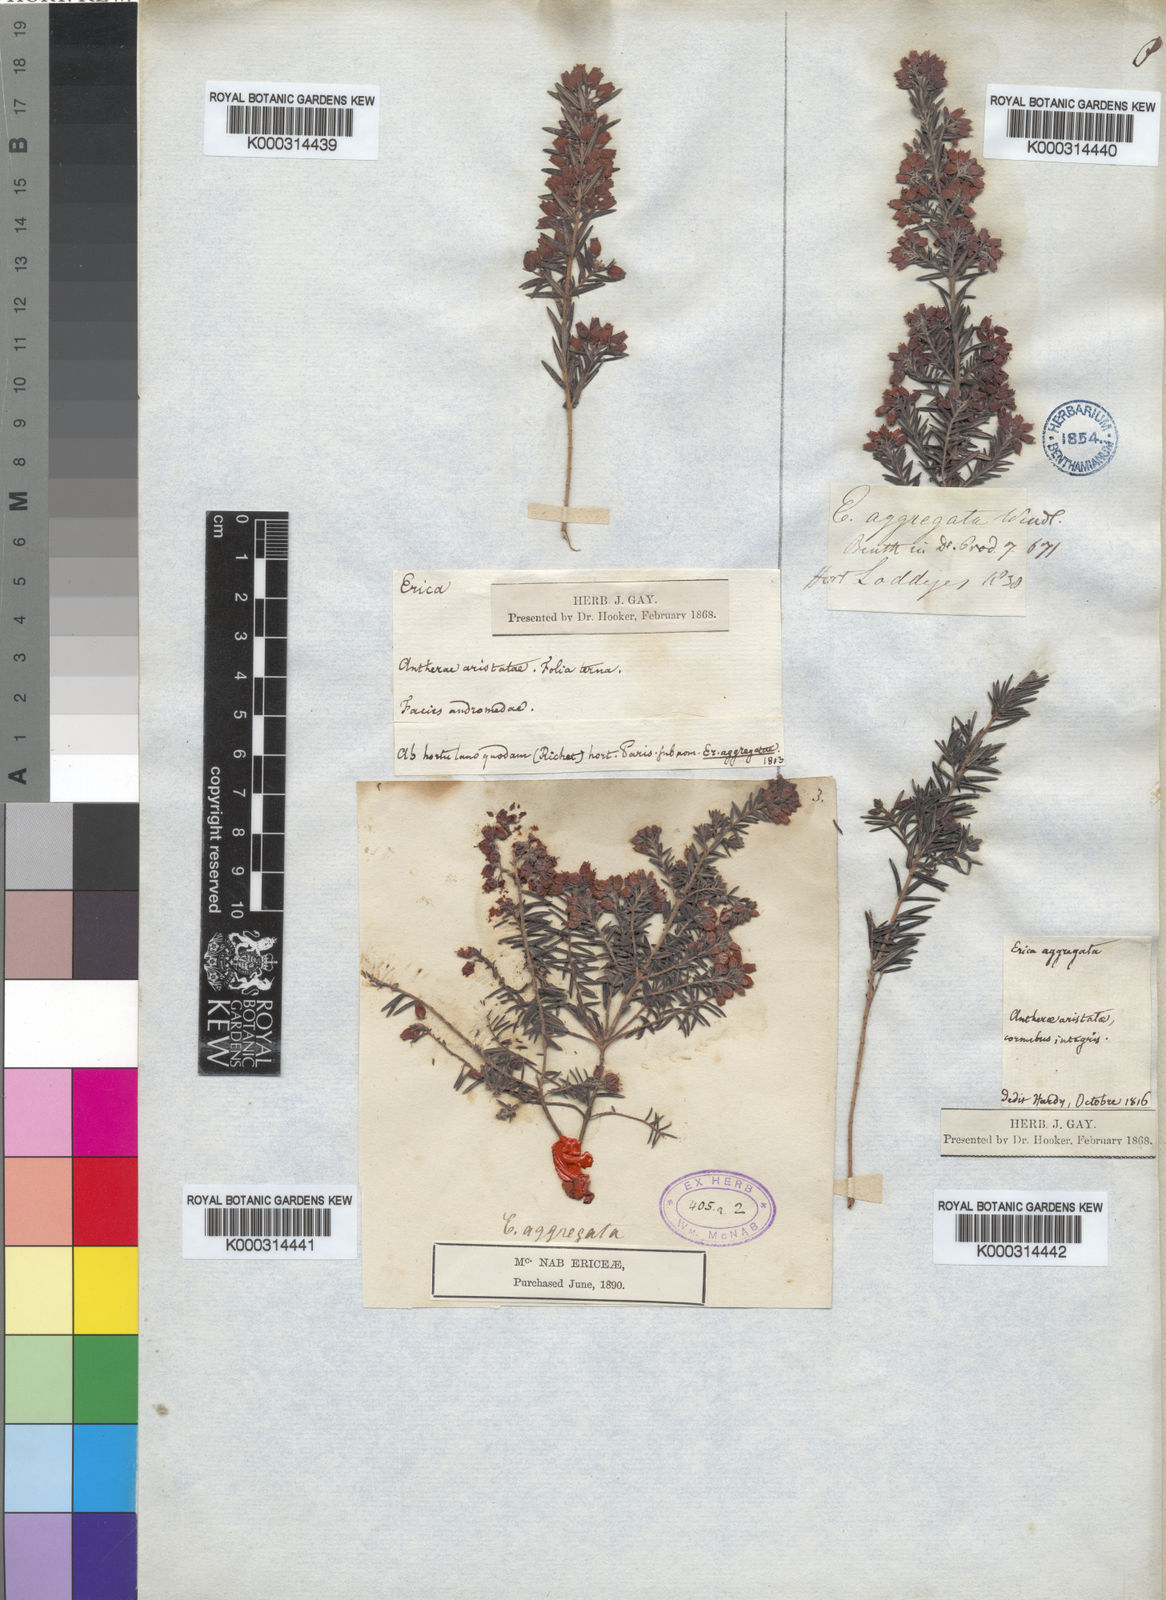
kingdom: Plantae
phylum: Tracheophyta
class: Magnoliopsida
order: Ericales
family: Ericaceae
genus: Erica
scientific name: Erica
